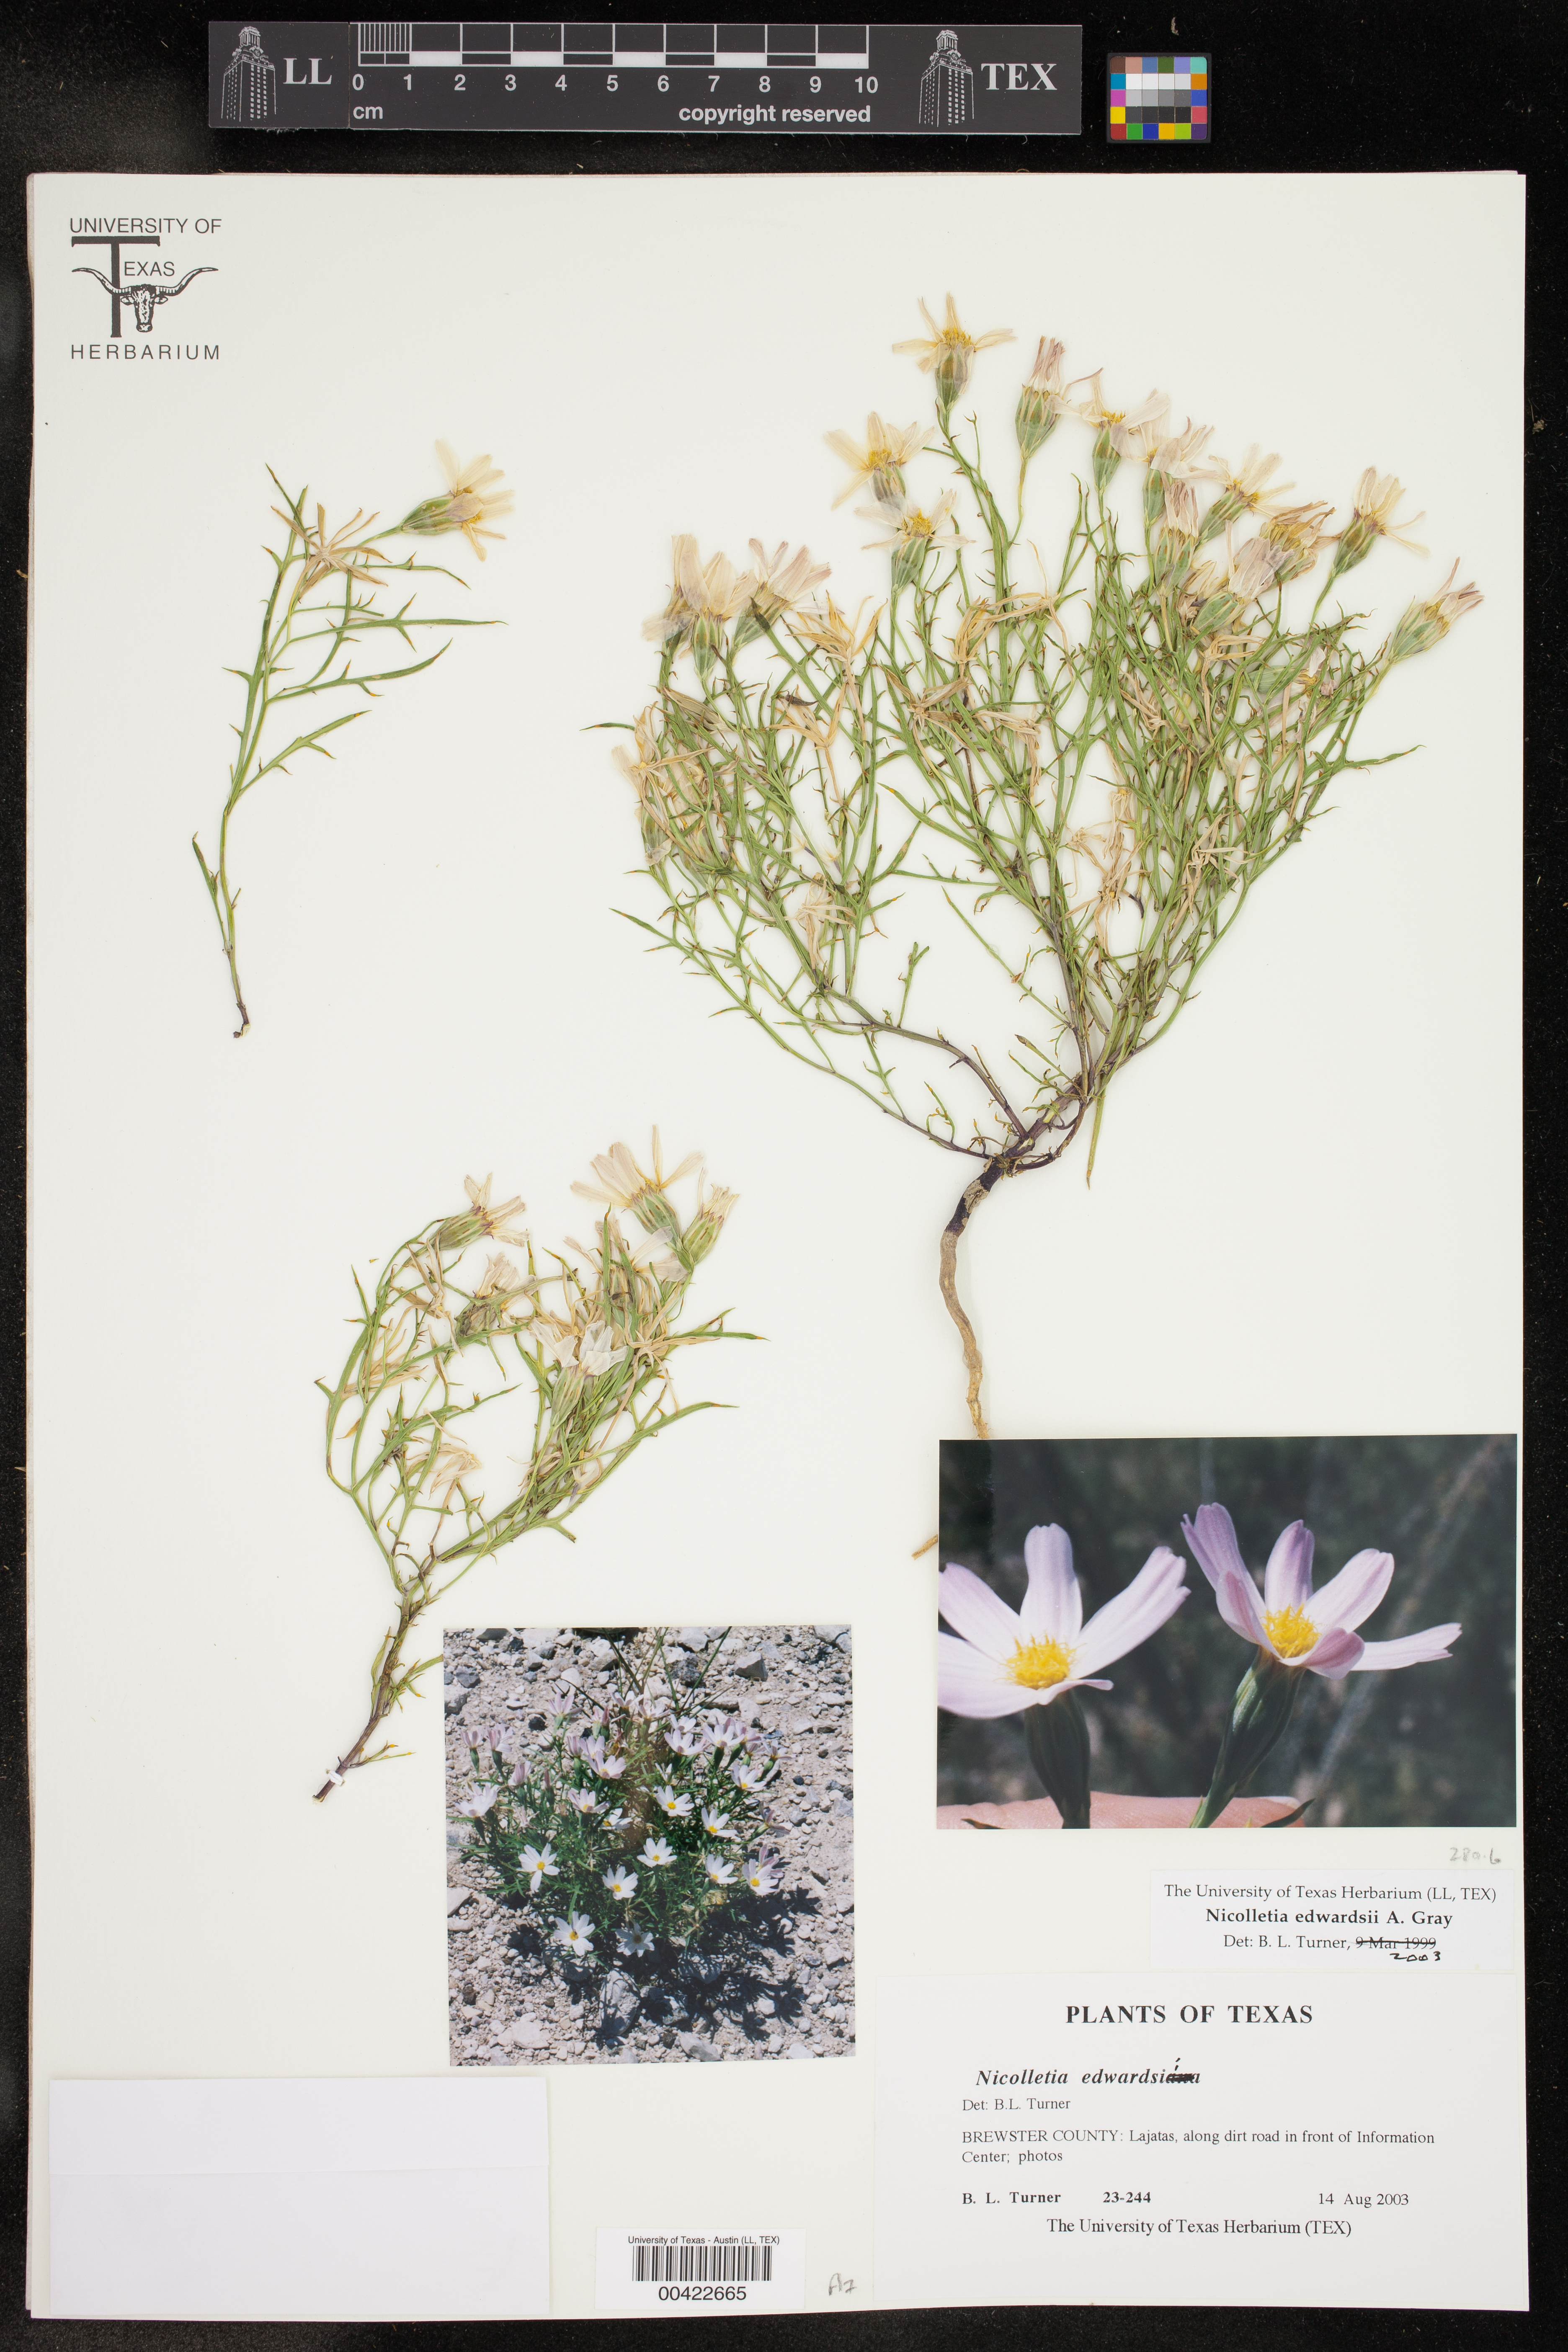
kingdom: Plantae
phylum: Tracheophyta
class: Magnoliopsida
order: Asterales
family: Asteraceae
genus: Nicolletia
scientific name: Nicolletia edwardsii
